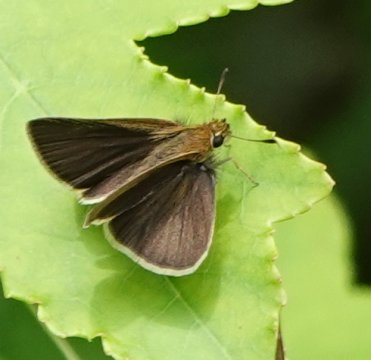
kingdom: Animalia
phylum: Arthropoda
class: Insecta
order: Lepidoptera
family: Hesperiidae
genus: Nastra
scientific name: Nastra lherminier
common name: Swarthy Skipper
